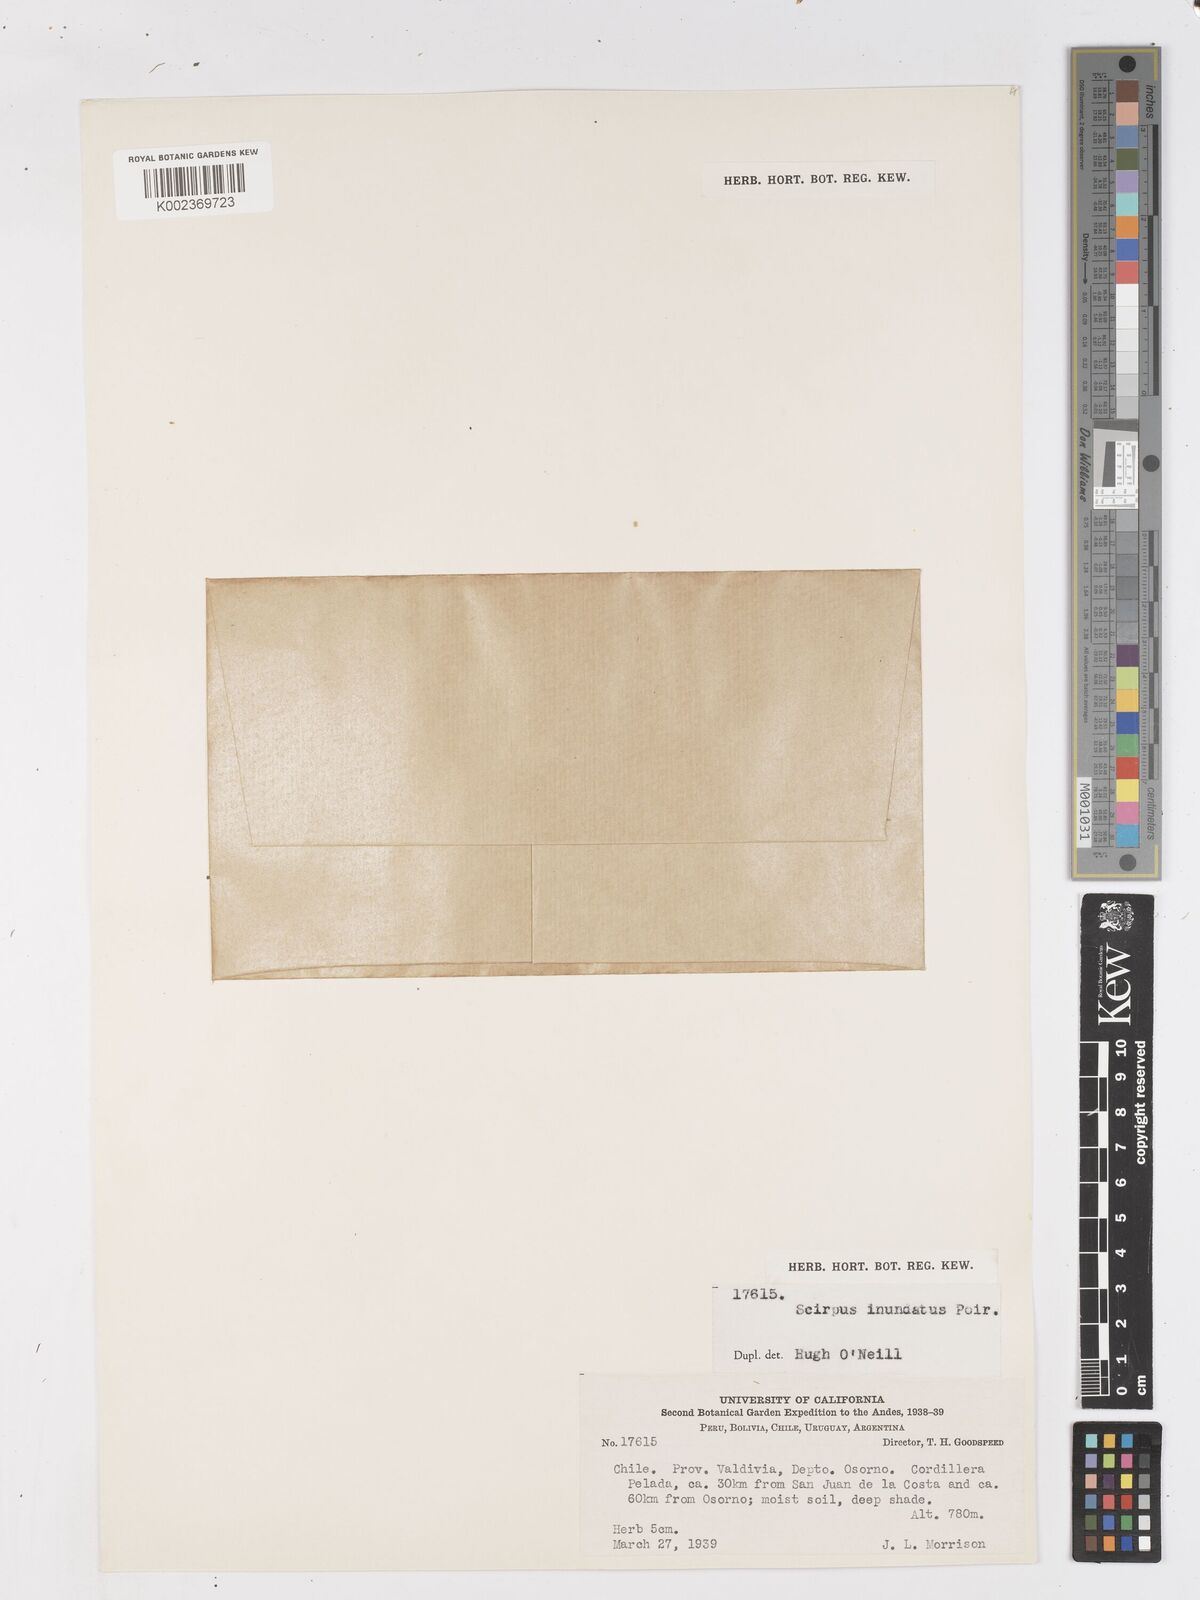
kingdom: Plantae
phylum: Tracheophyta
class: Liliopsida
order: Poales
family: Cyperaceae
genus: Isolepis
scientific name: Isolepis inundata
